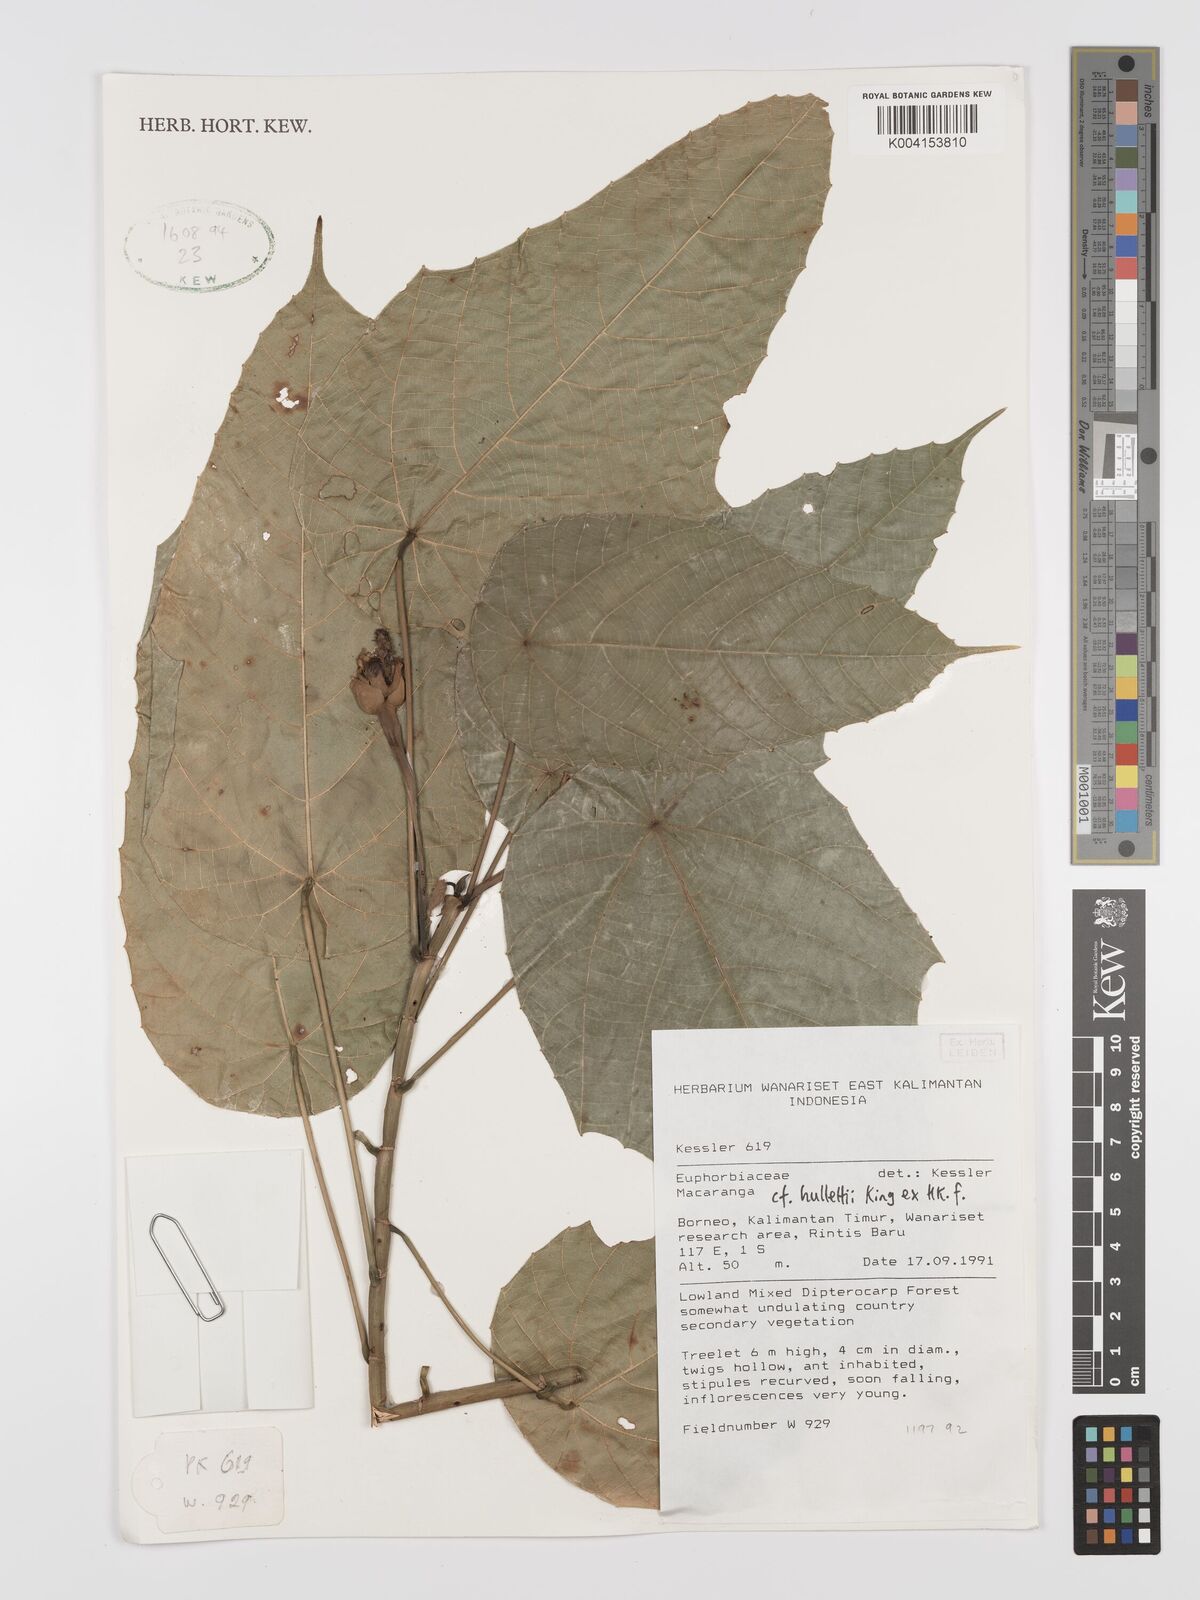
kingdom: Plantae
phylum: Tracheophyta
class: Magnoliopsida
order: Malpighiales
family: Euphorbiaceae
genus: Macaranga
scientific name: Macaranga
